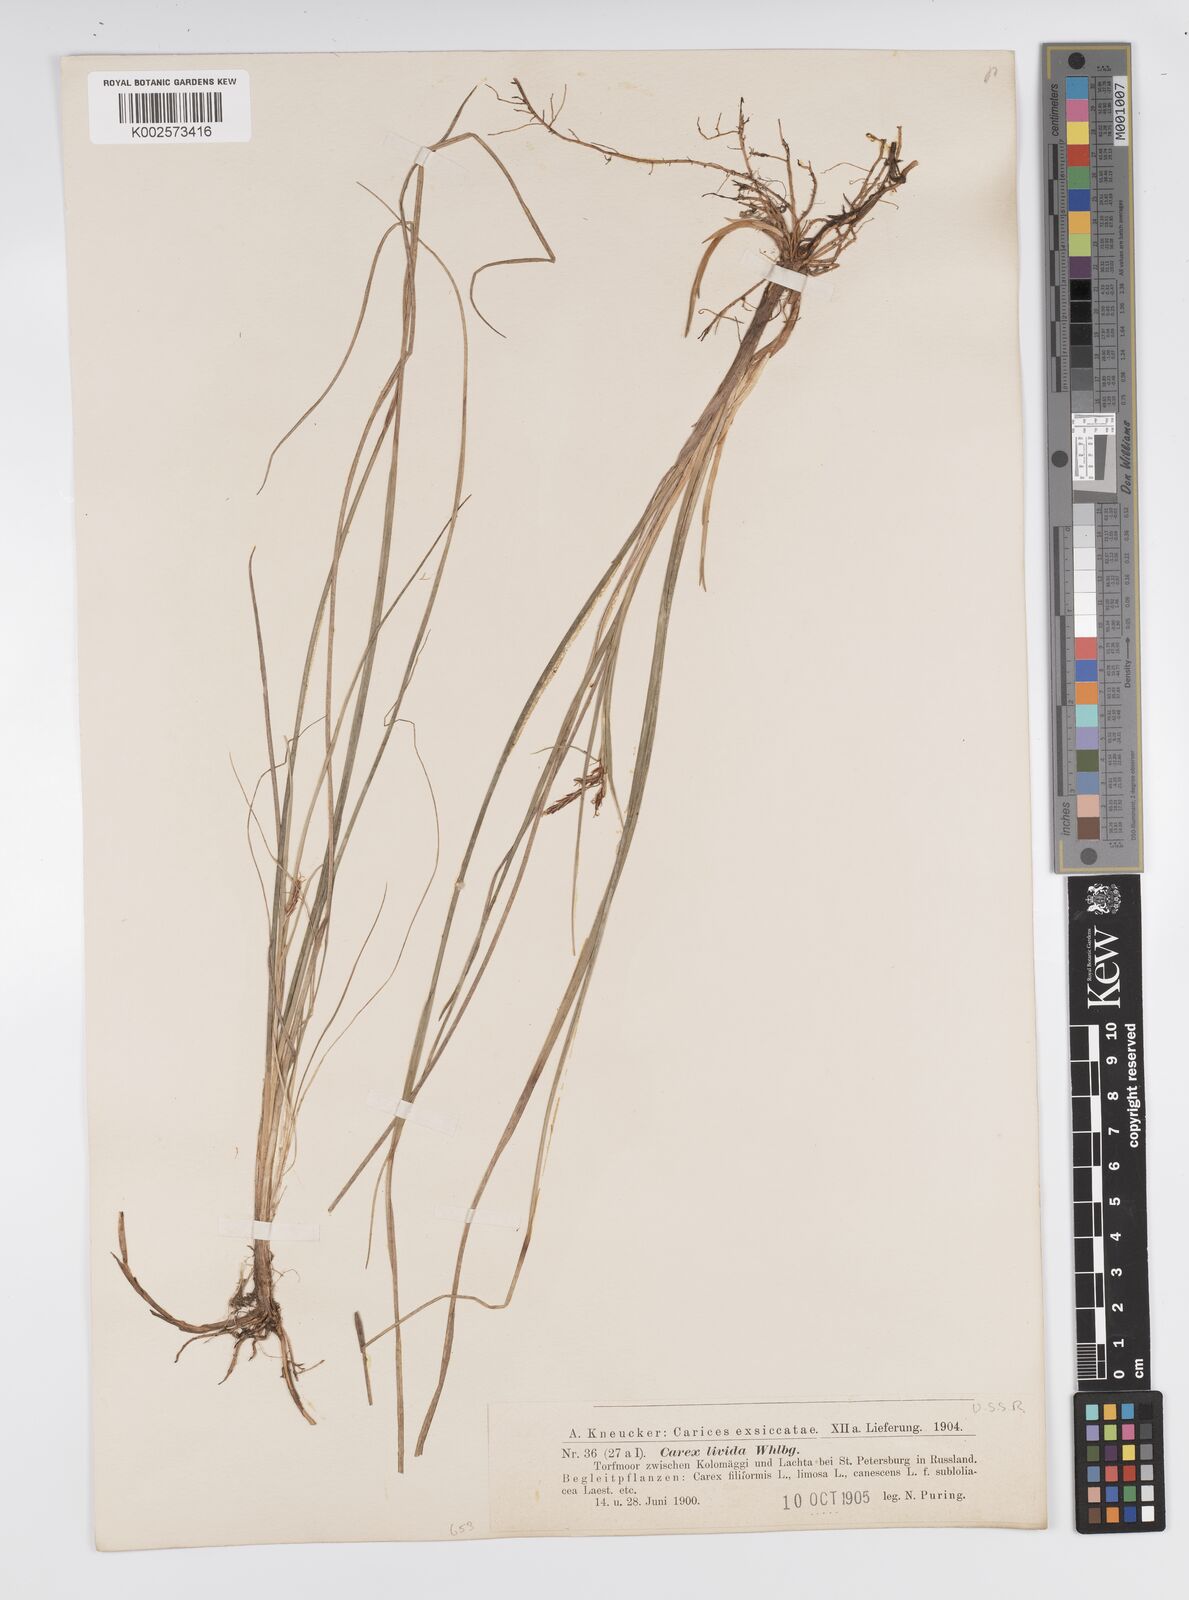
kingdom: Plantae
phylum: Tracheophyta
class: Liliopsida
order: Poales
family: Cyperaceae
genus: Carex
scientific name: Carex livida
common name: Livid sedge
